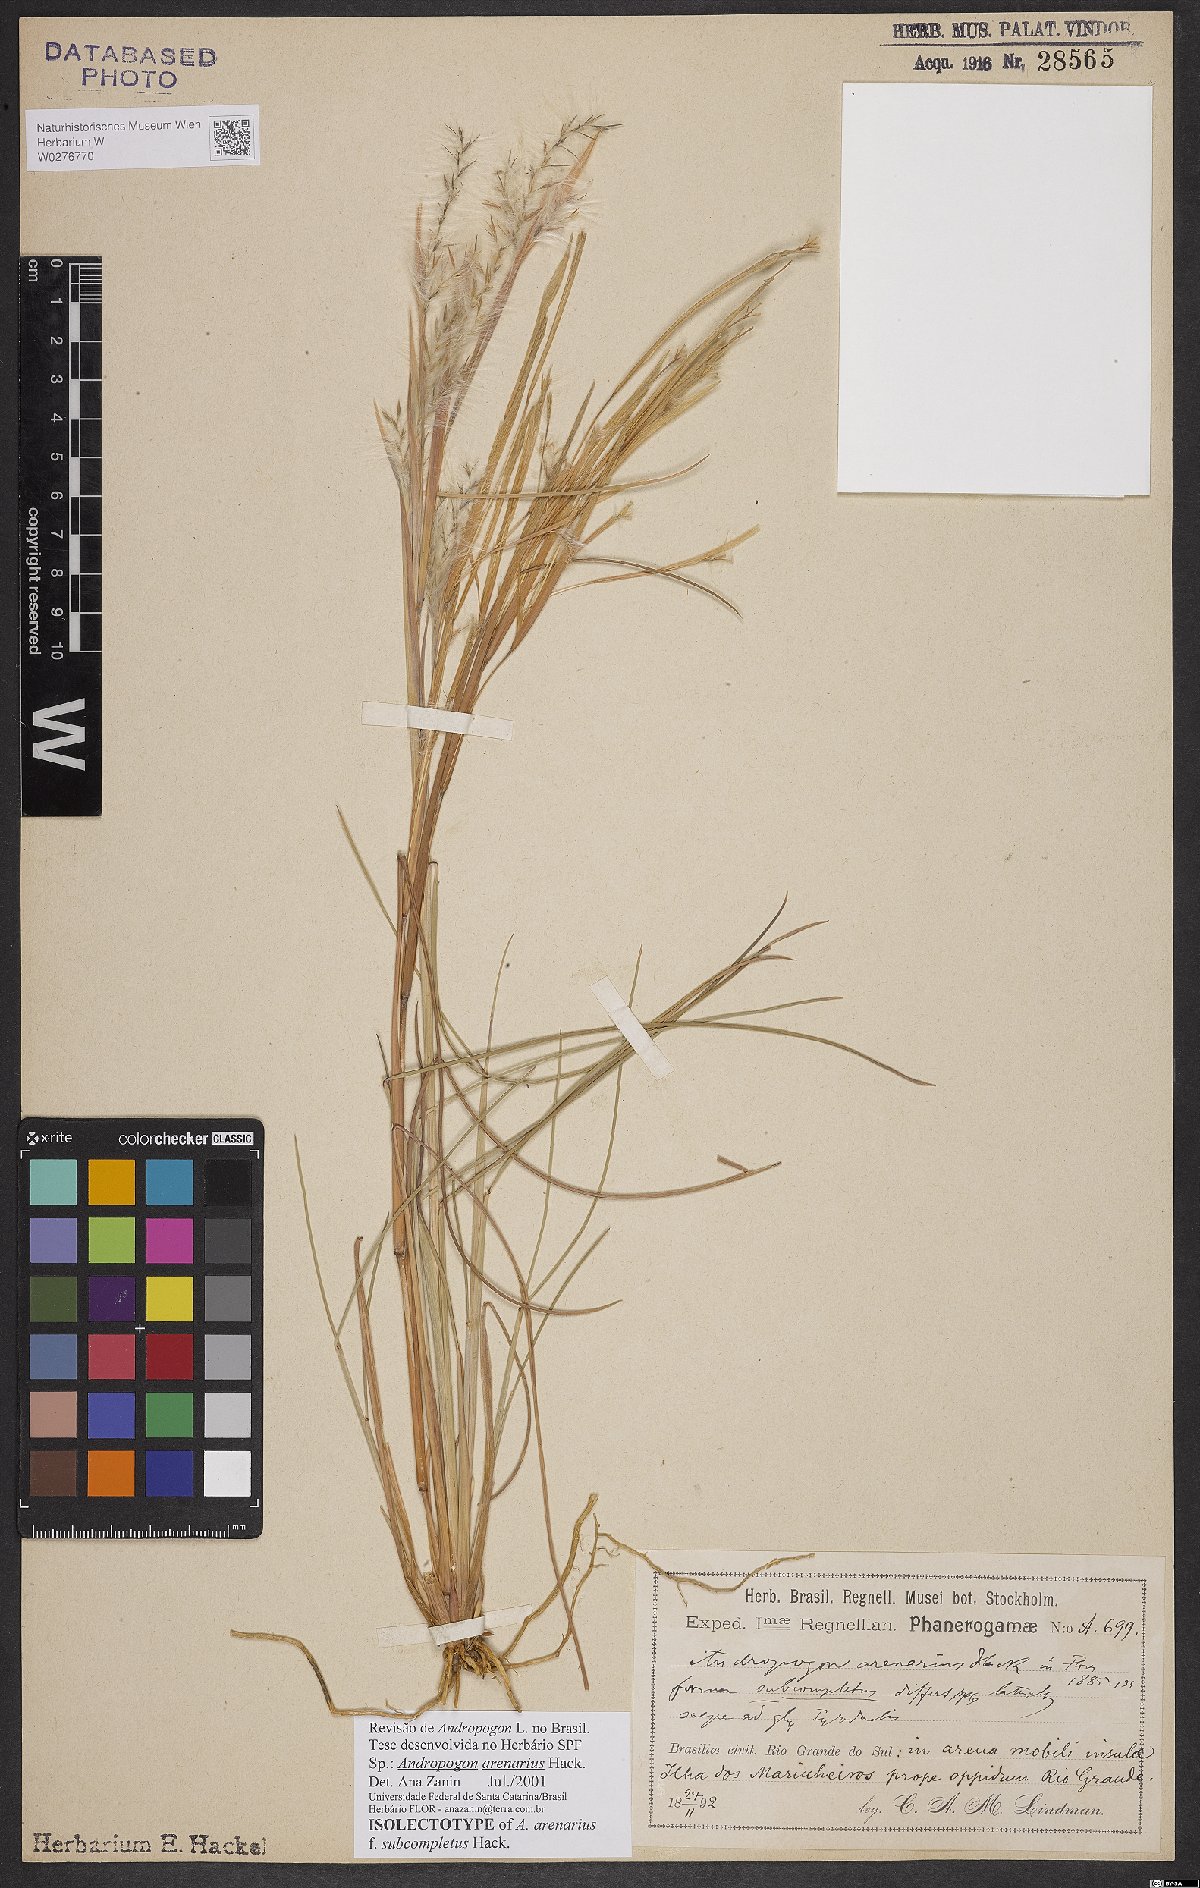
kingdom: Plantae
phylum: Tracheophyta
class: Liliopsida
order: Poales
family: Poaceae
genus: Andropogon
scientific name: Andropogon arenarius
